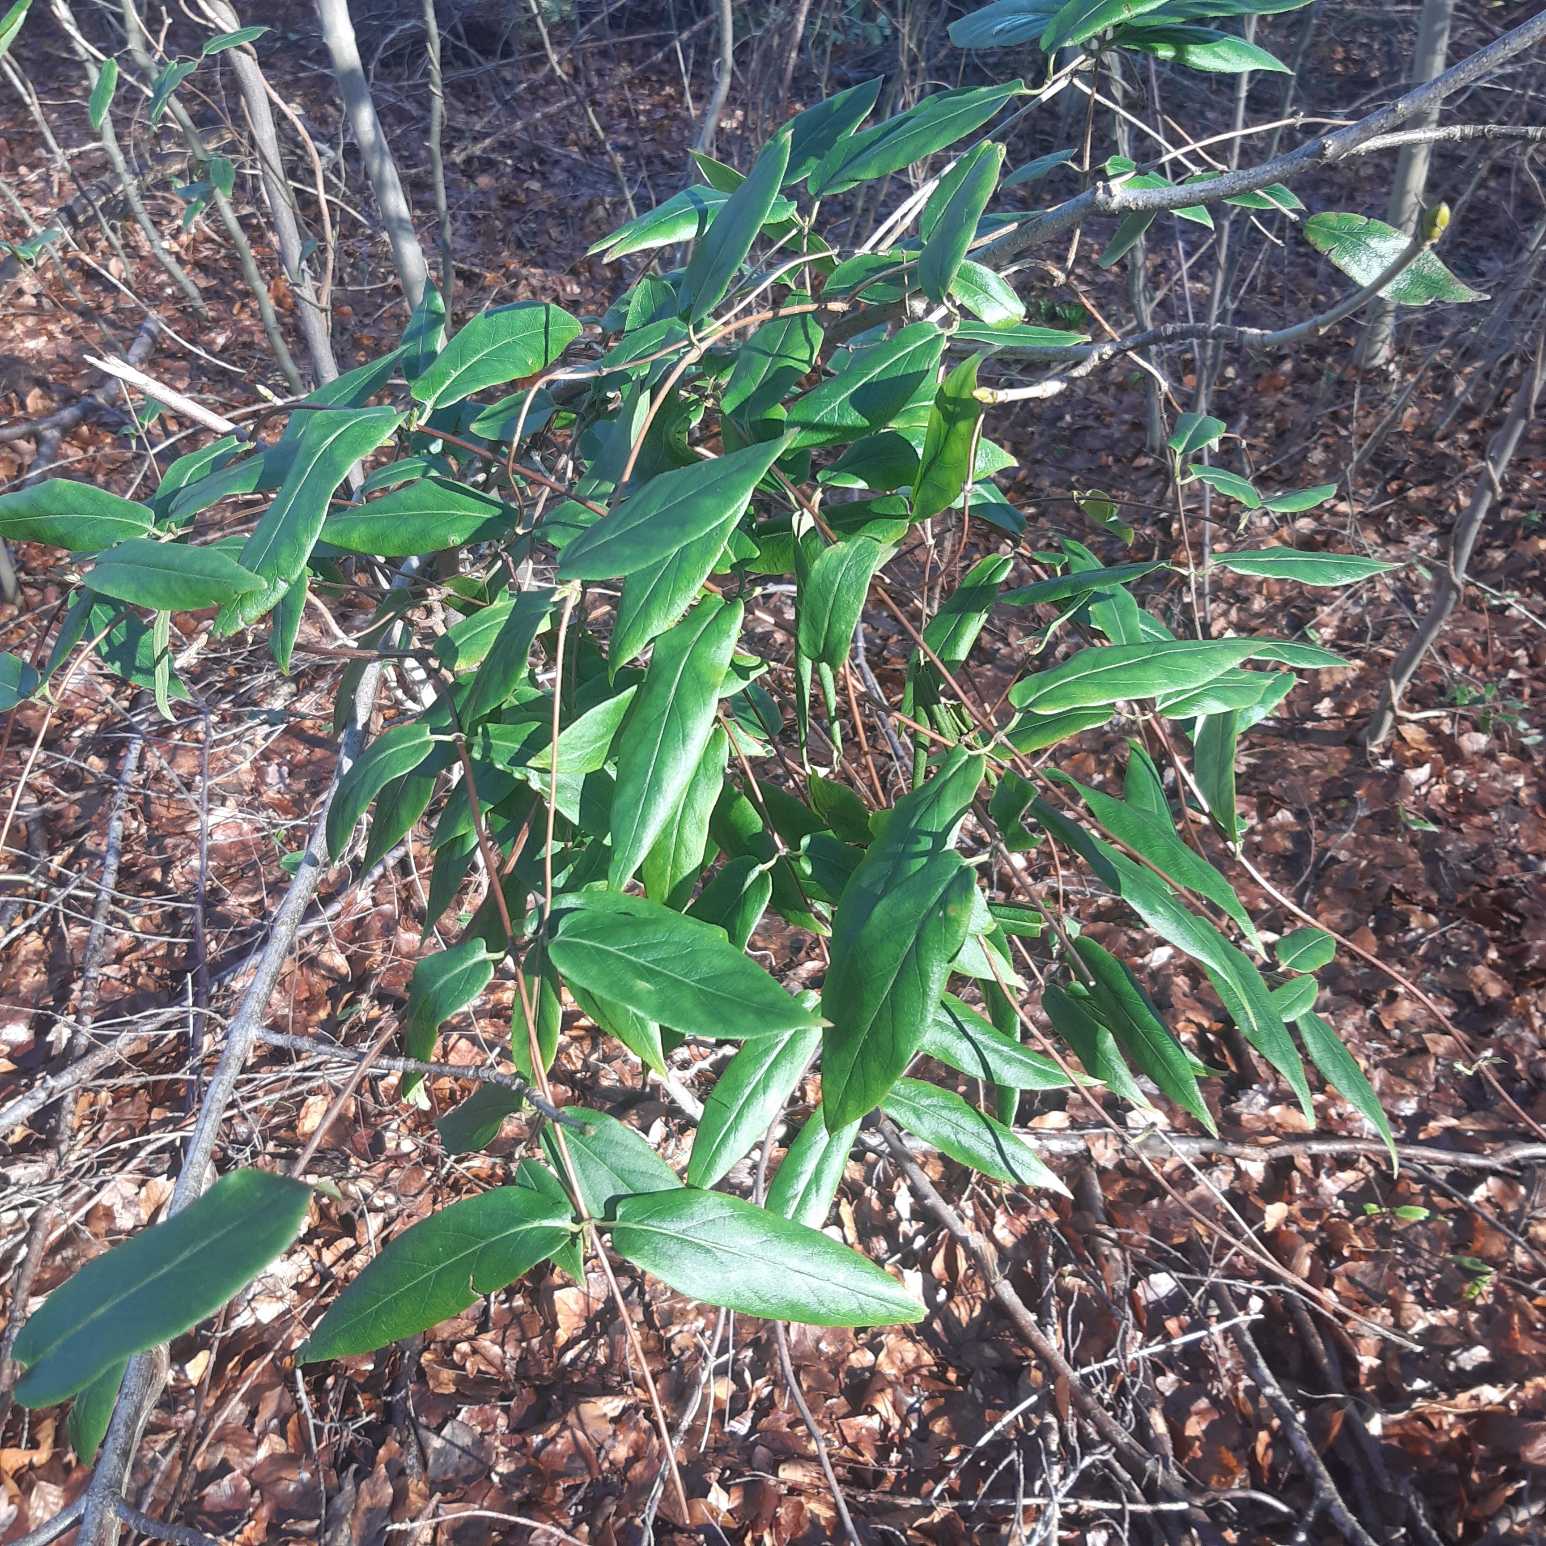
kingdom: Plantae
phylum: Tracheophyta
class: Magnoliopsida
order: Dipsacales
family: Caprifoliaceae
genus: Lonicera
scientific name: Lonicera acuminata
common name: Henrys gedeblad
